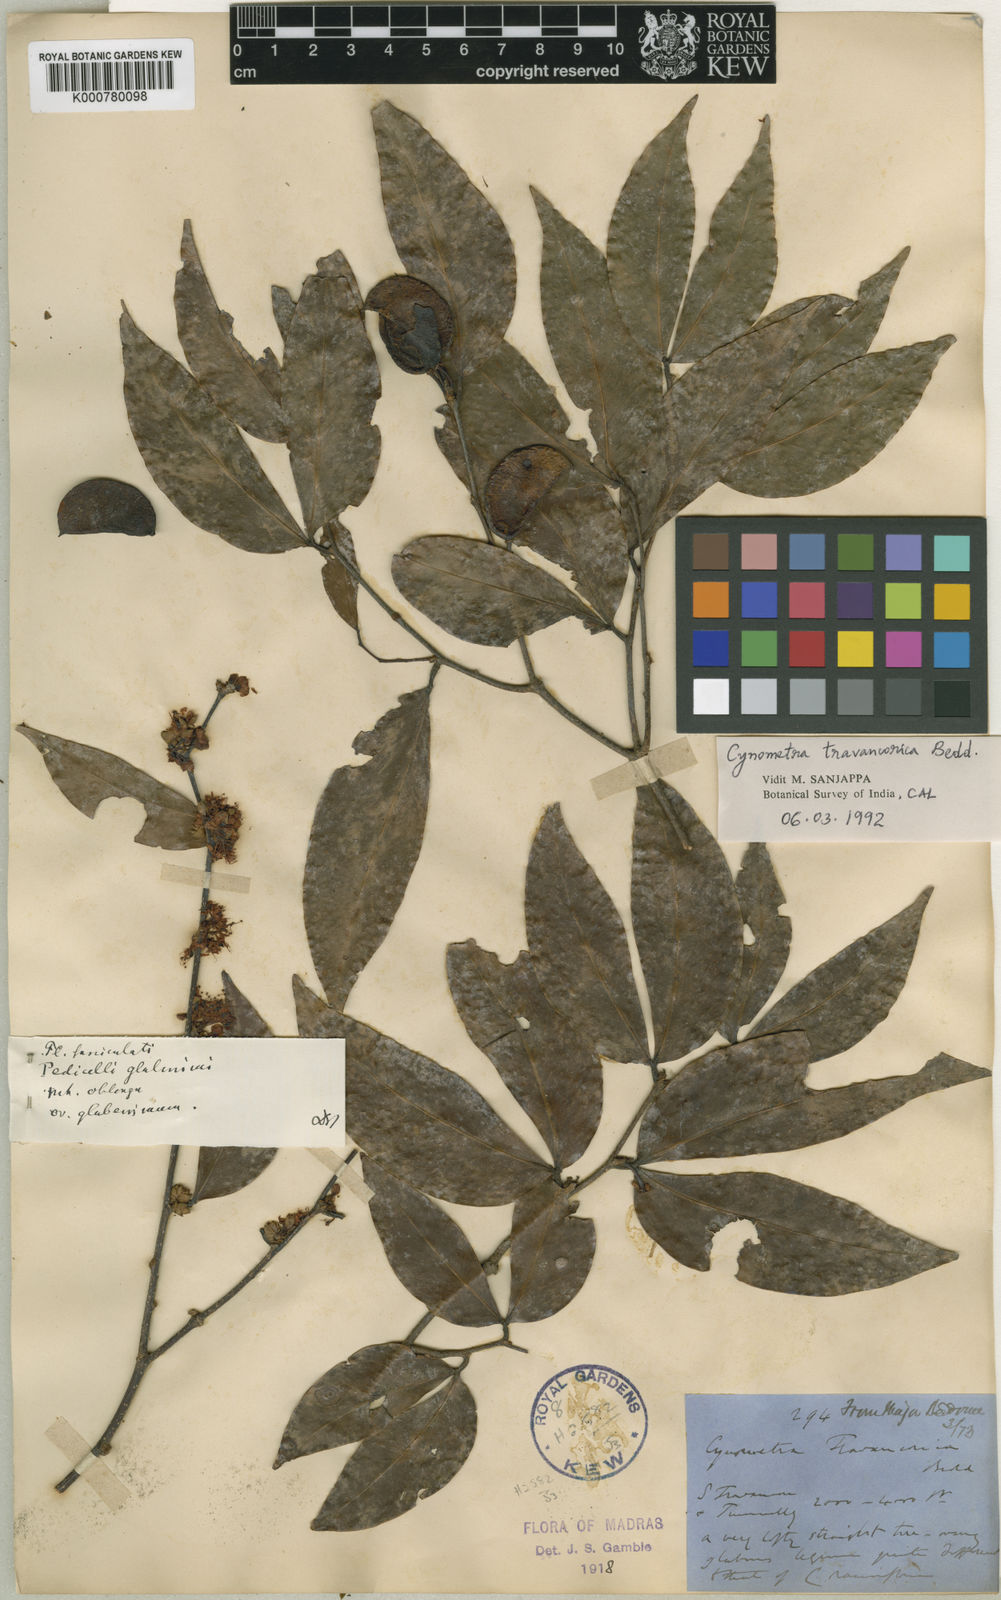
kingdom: Plantae
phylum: Tracheophyta
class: Magnoliopsida
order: Fabales
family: Fabaceae
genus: Cynometra
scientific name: Cynometra travancorica
